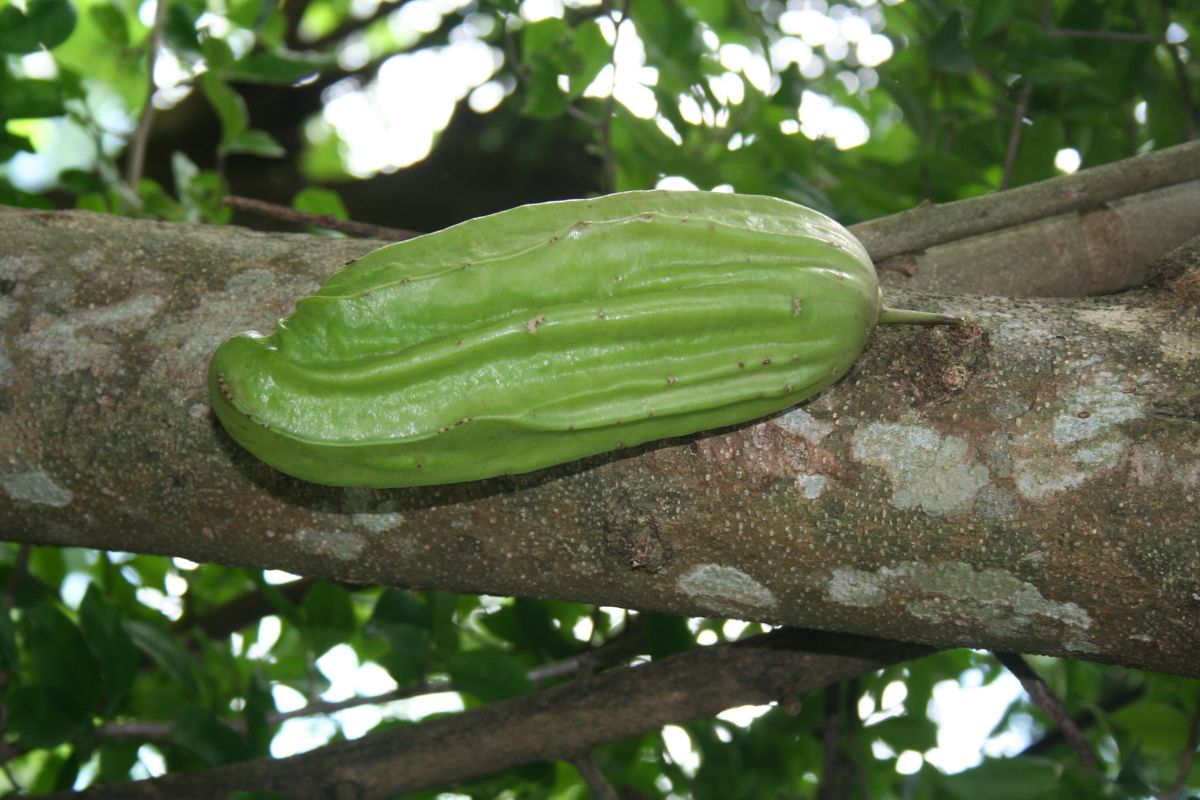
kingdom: Plantae
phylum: Tracheophyta
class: Magnoliopsida
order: Lamiales
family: Bignoniaceae
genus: Parmentiera
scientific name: Parmentiera aculeata
